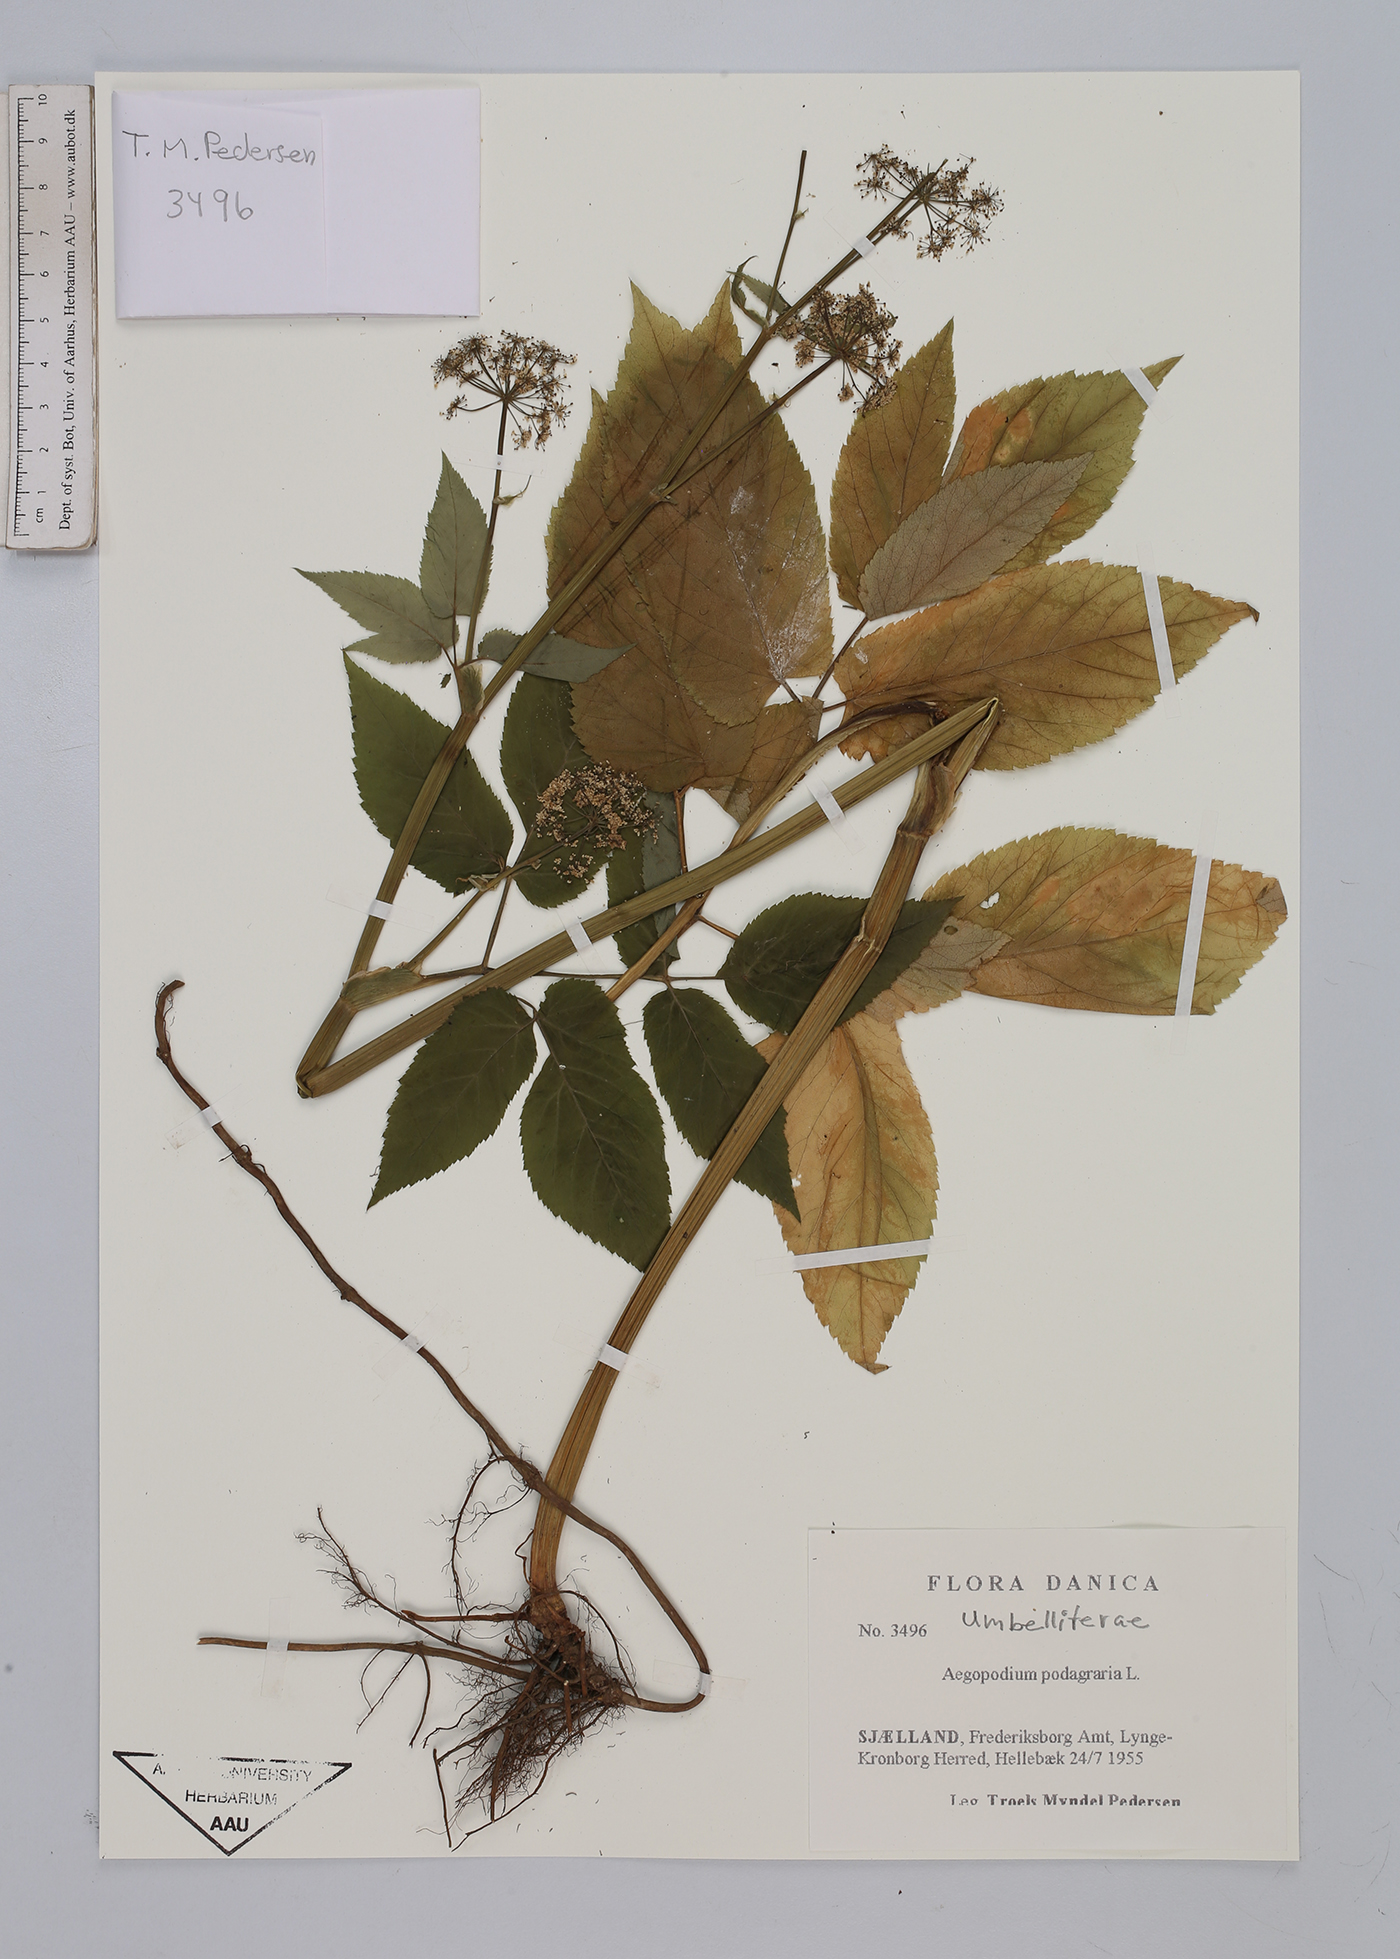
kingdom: Plantae
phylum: Tracheophyta
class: Magnoliopsida
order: Apiales
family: Apiaceae
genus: Aegopodium
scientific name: Aegopodium podagraria
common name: Ground-elder
